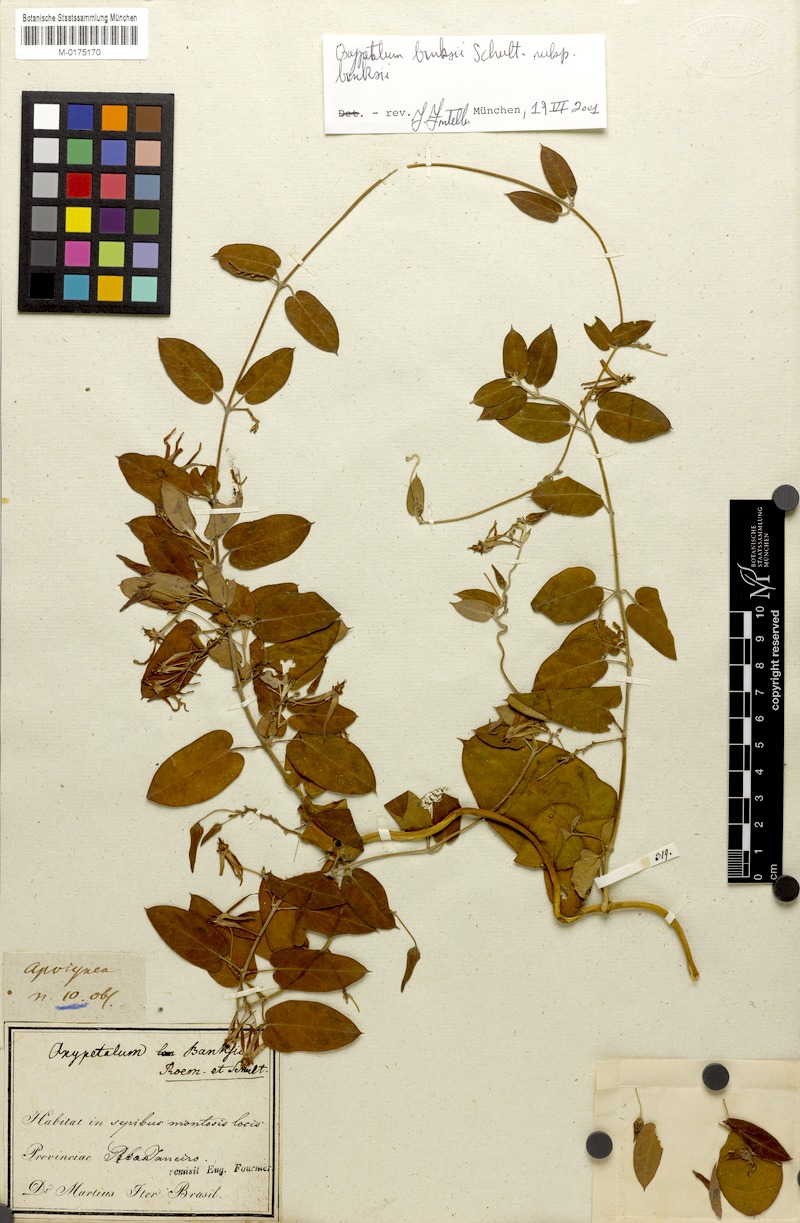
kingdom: Plantae
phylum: Tracheophyta
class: Magnoliopsida
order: Gentianales
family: Apocynaceae
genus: Oxypetalum
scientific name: Oxypetalum banksii
